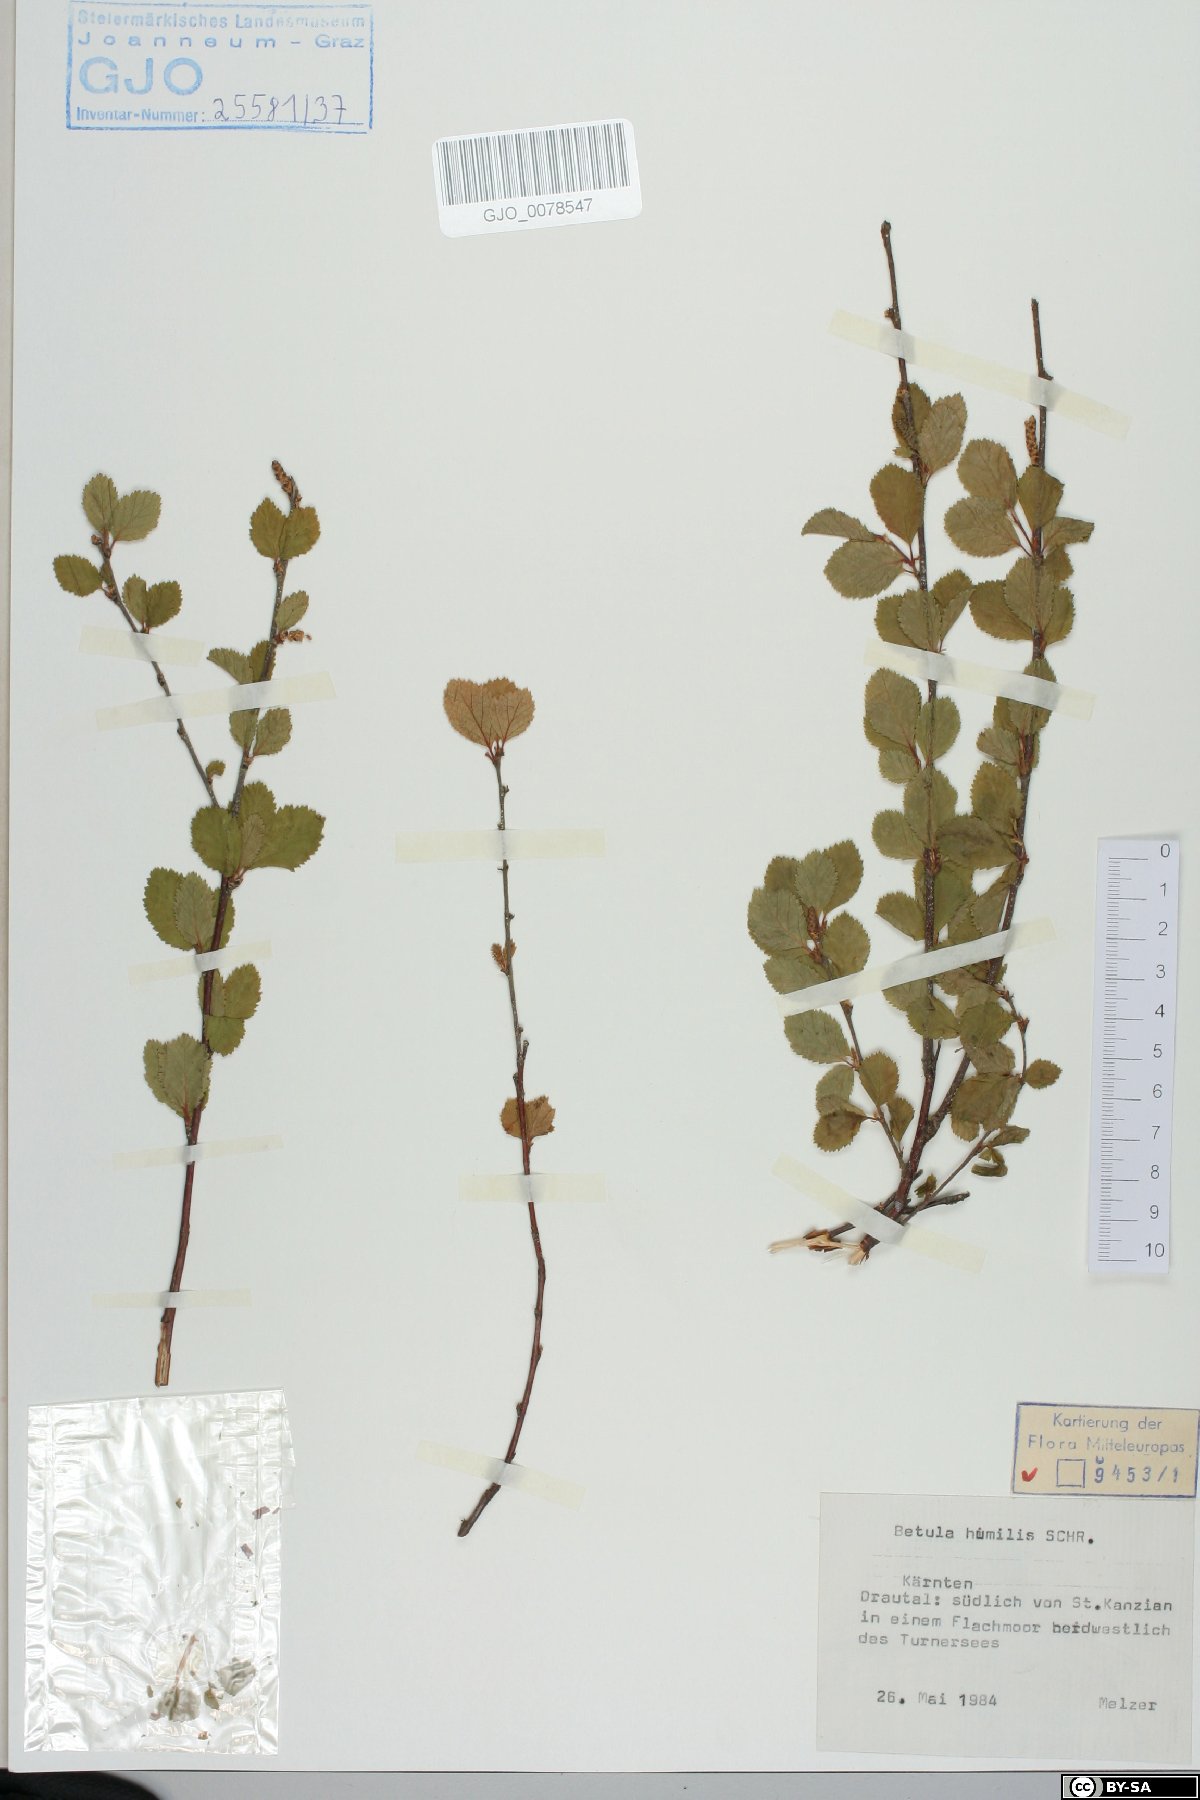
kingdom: Plantae
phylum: Tracheophyta
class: Magnoliopsida
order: Fagales
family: Betulaceae
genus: Betula
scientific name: Betula humilis
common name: Shrubby birch
